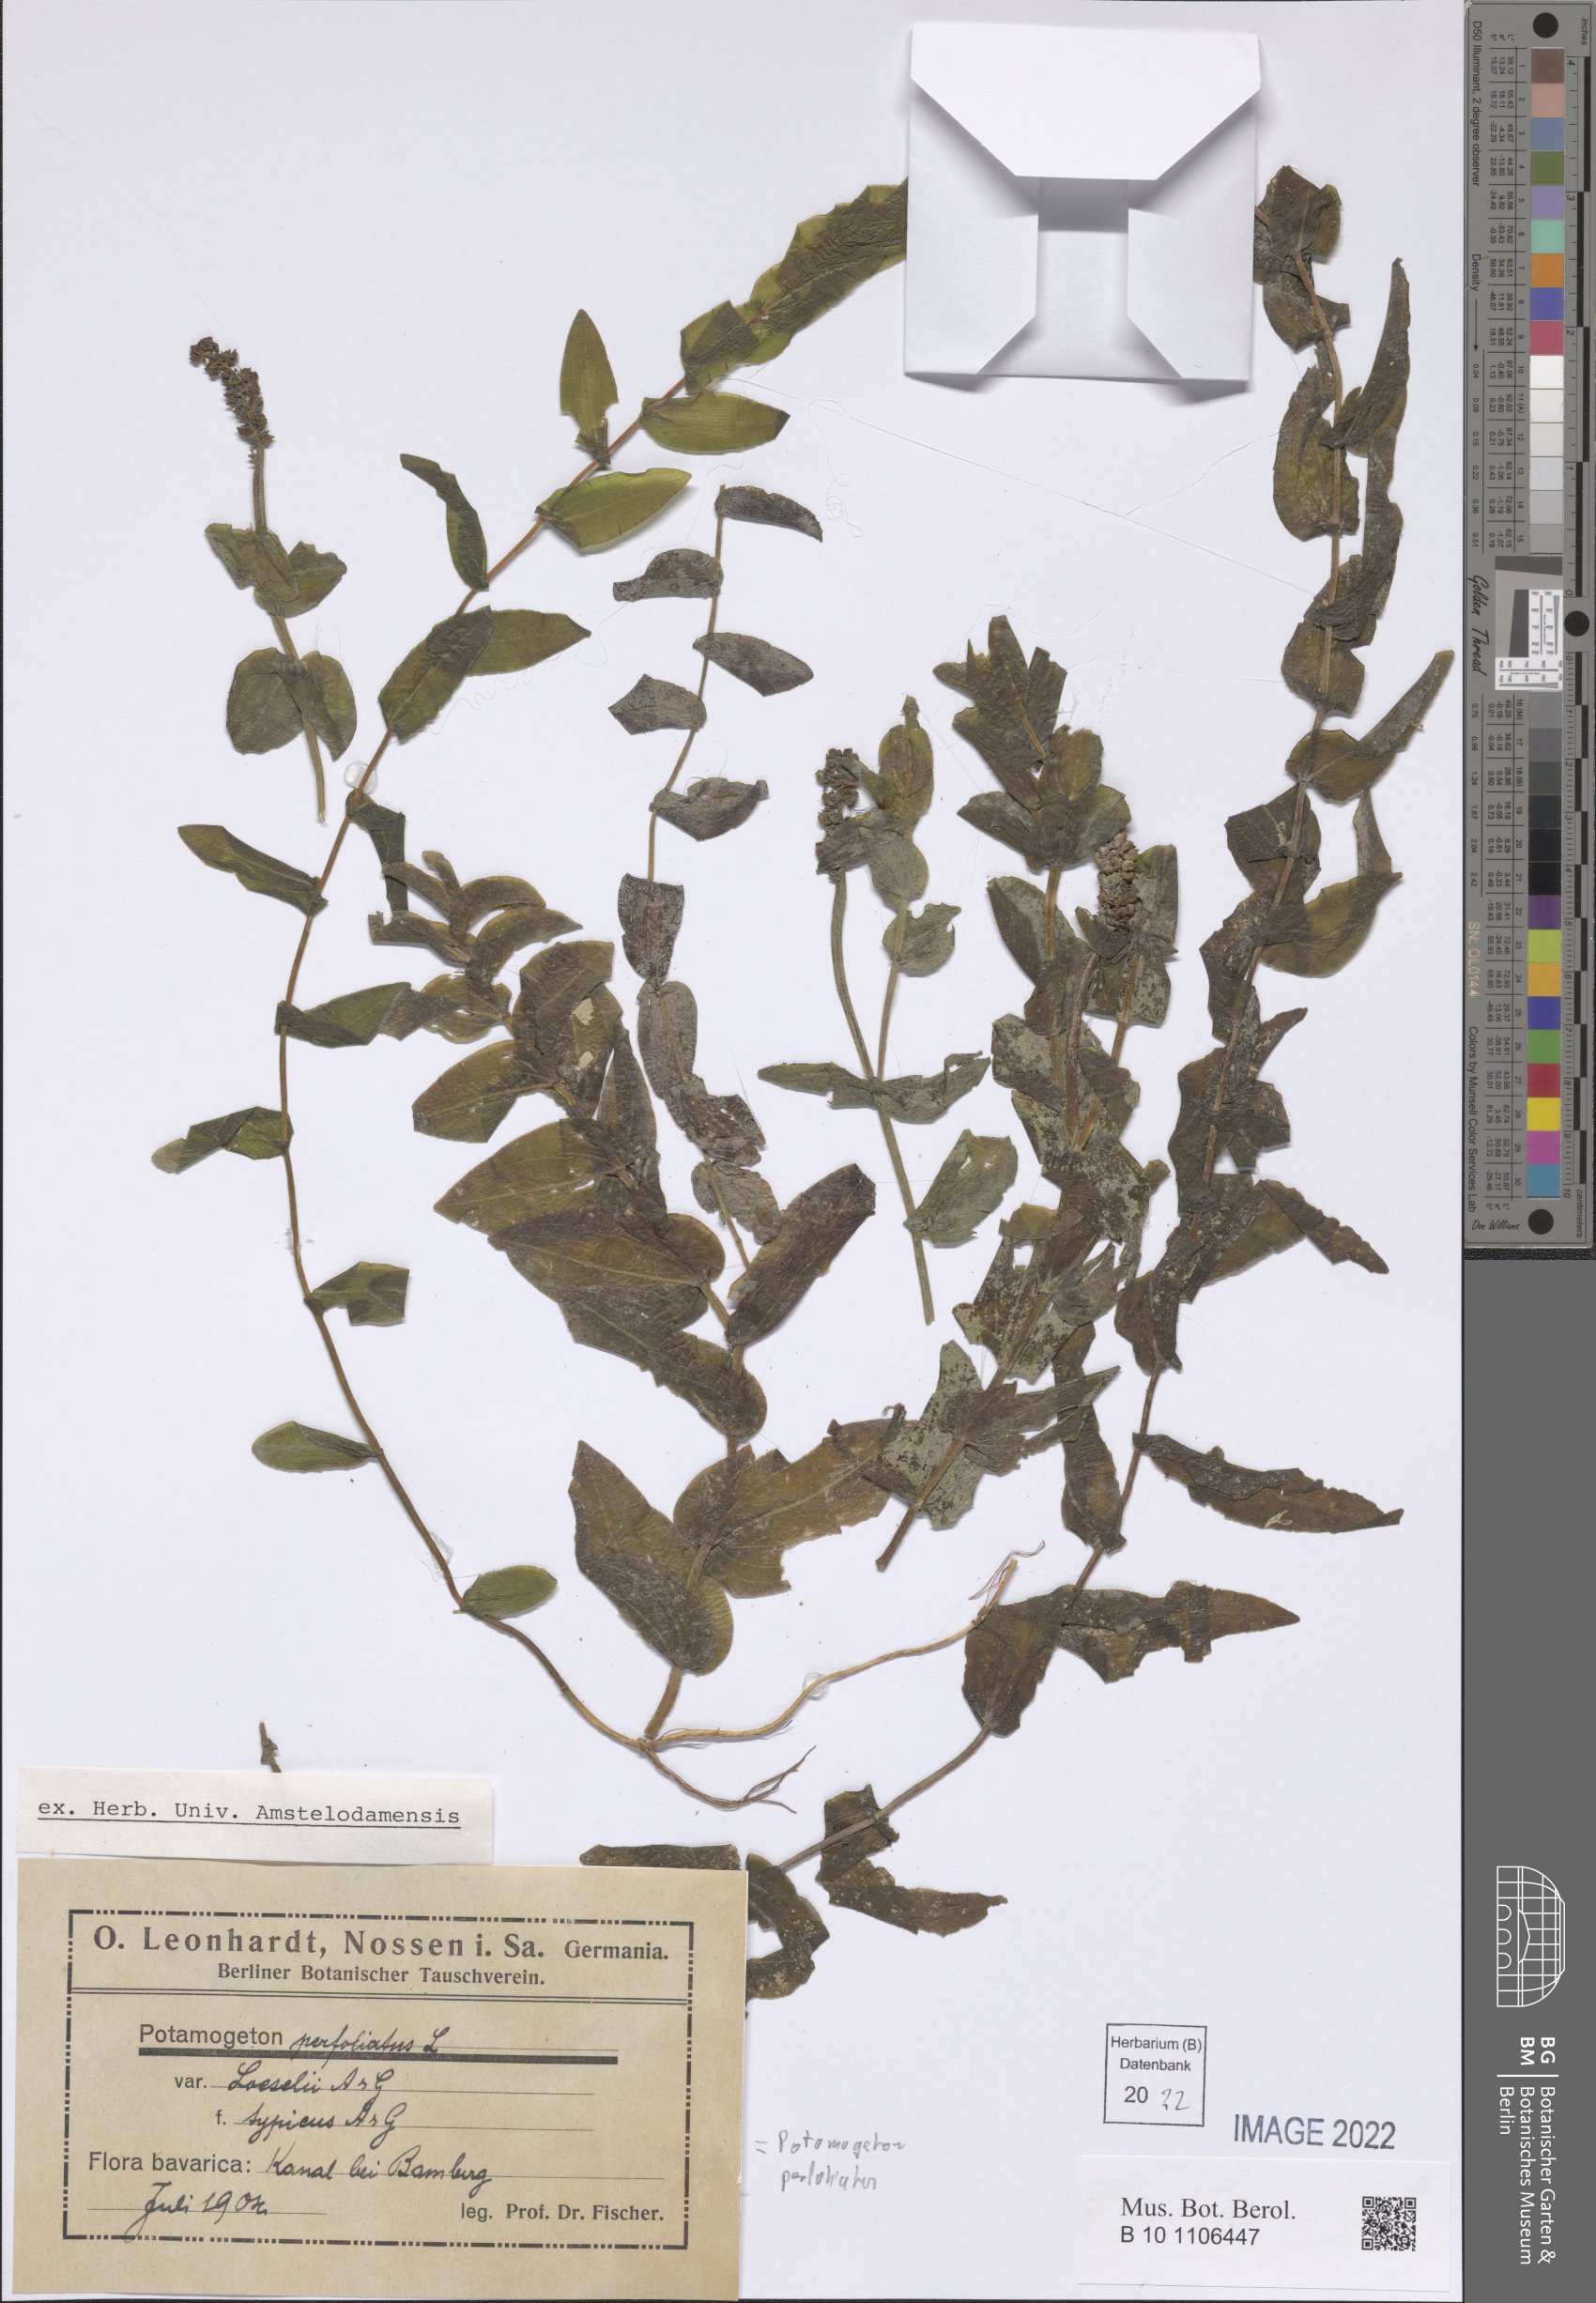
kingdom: Plantae
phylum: Tracheophyta
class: Liliopsida
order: Alismatales
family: Potamogetonaceae
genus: Potamogeton
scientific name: Potamogeton perfoliatus
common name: Perfoliate pondweed
